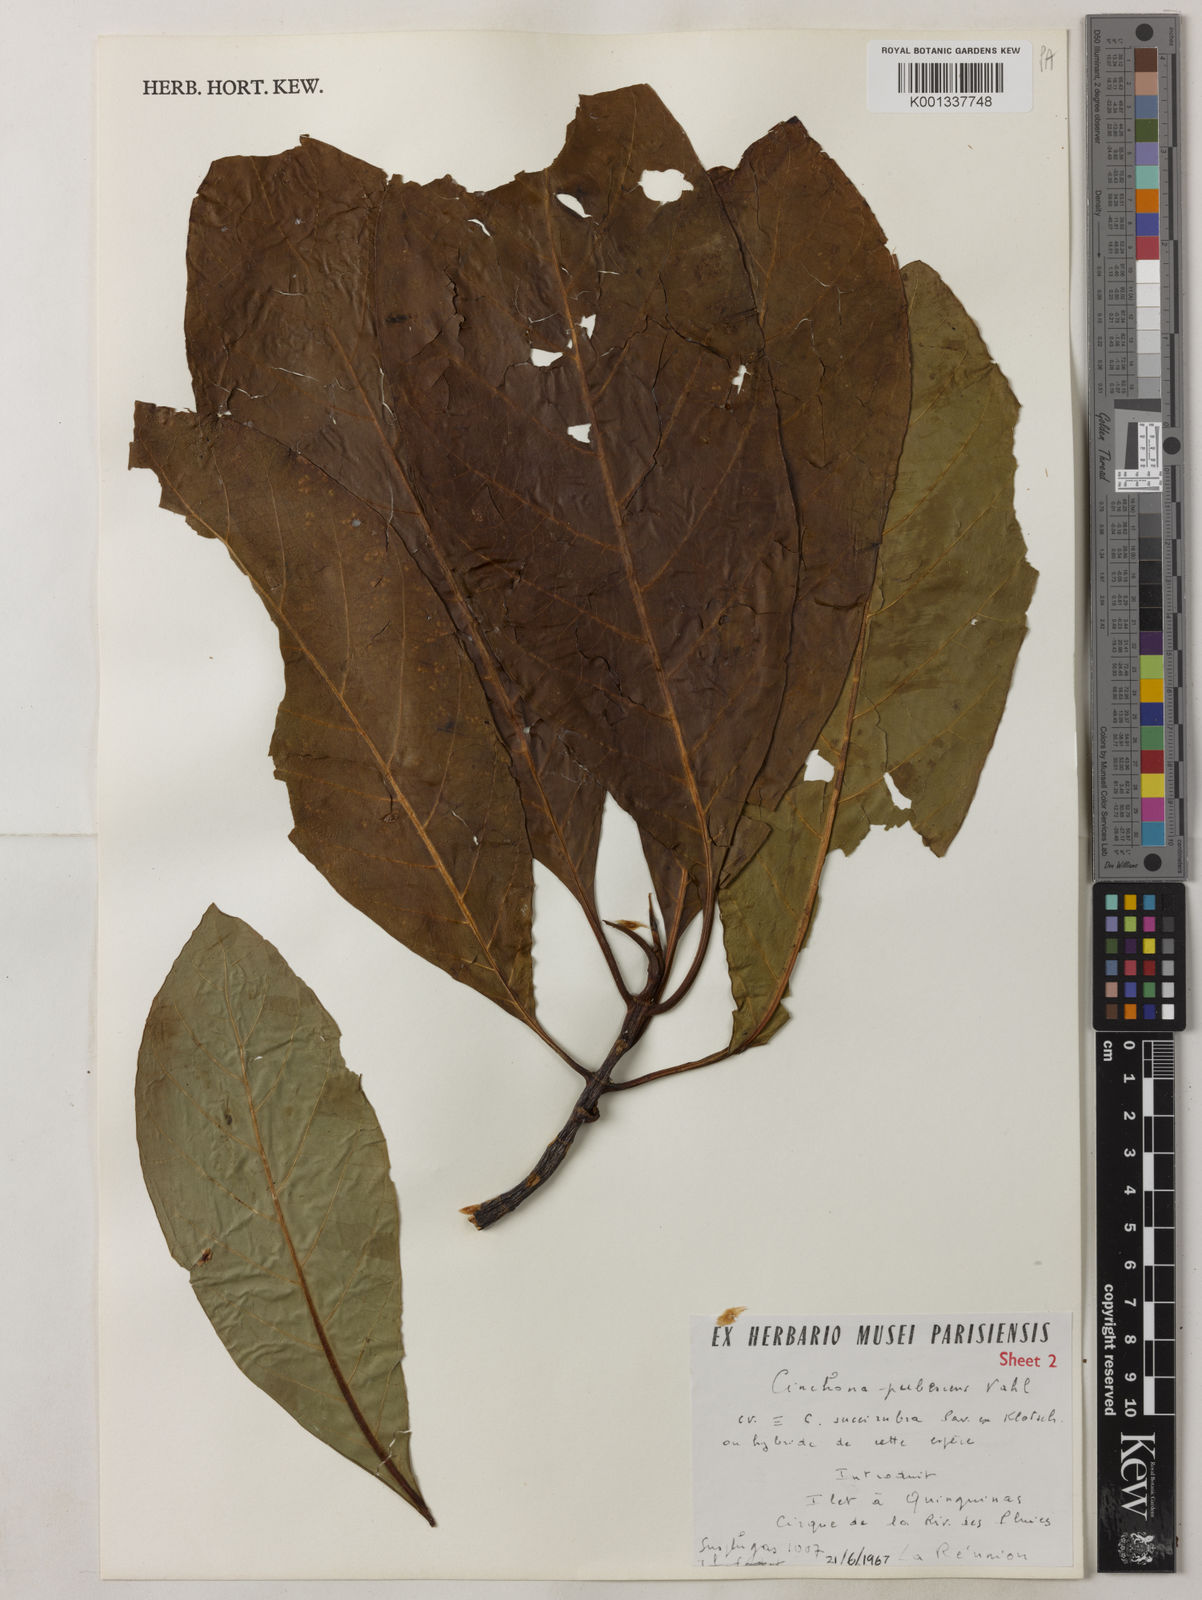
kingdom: Plantae
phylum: Tracheophyta
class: Magnoliopsida
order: Gentianales
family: Rubiaceae
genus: Cinchona
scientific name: Cinchona pubescens
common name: Quinine
